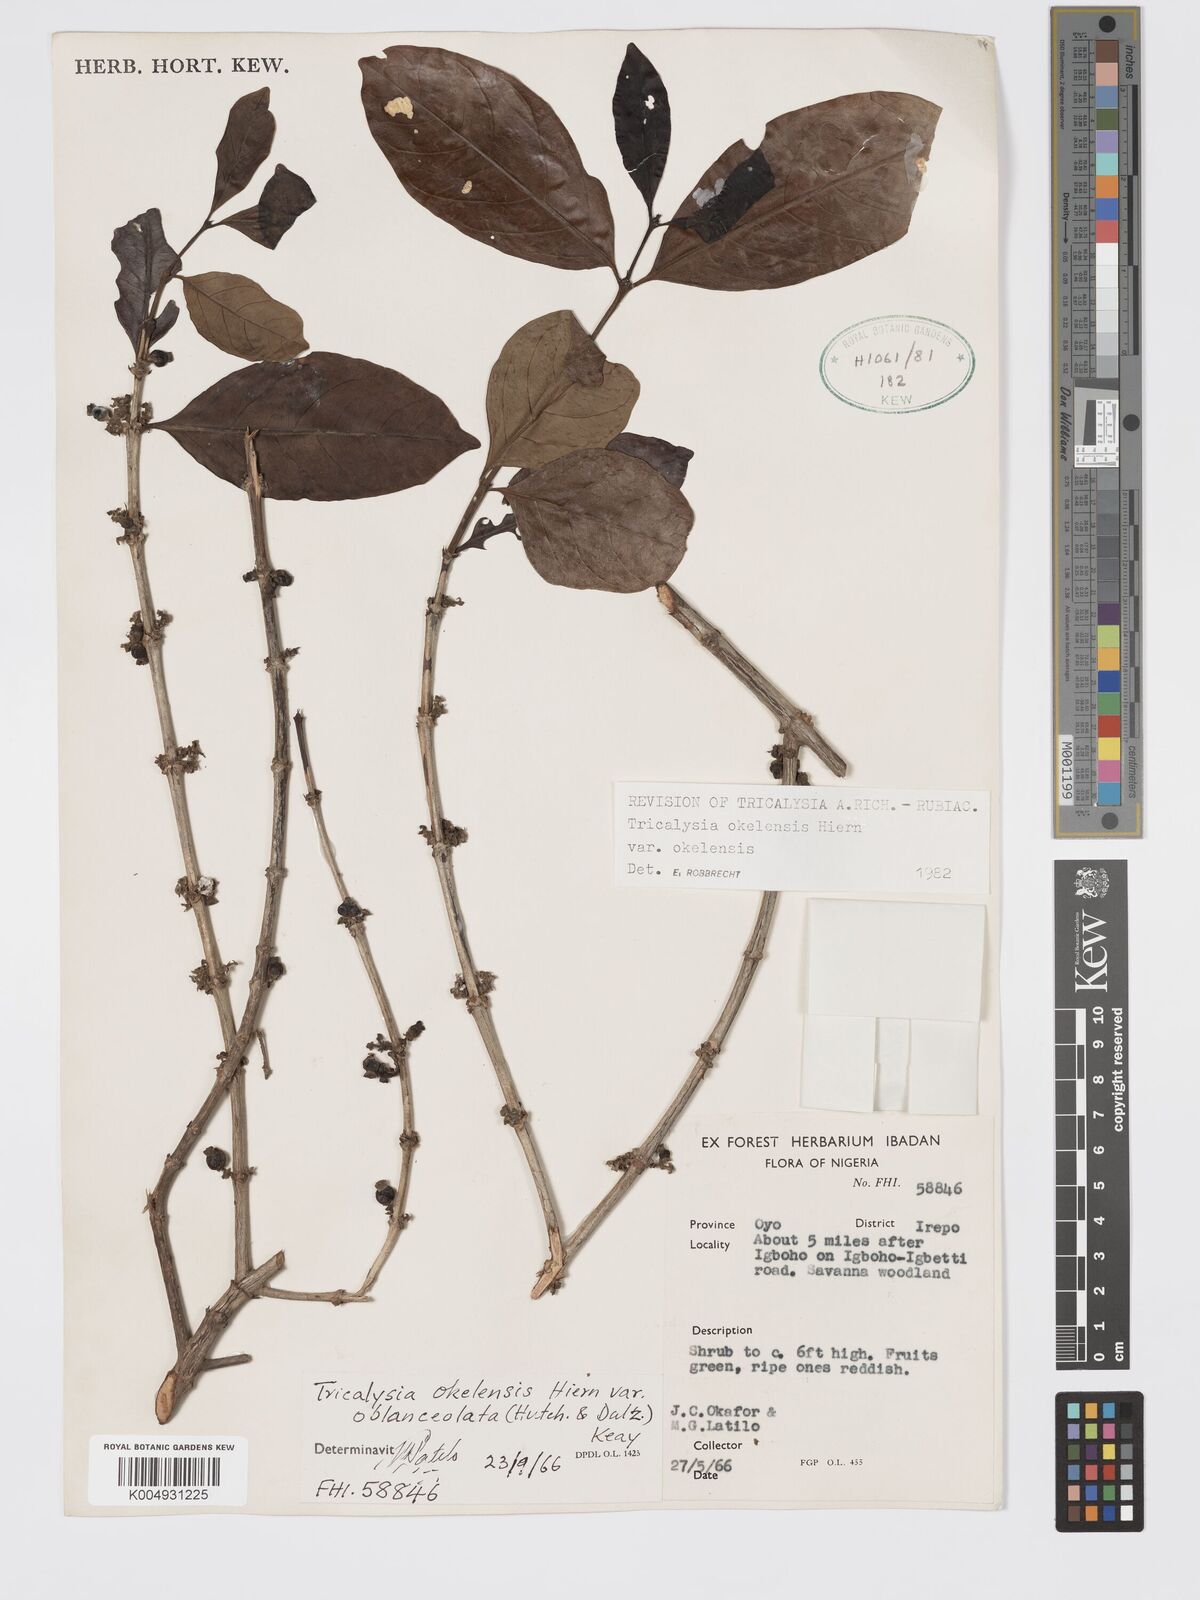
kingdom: Plantae
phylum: Tracheophyta
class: Magnoliopsida
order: Gentianales
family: Rubiaceae
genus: Tricalysia
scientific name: Tricalysia okelensis
